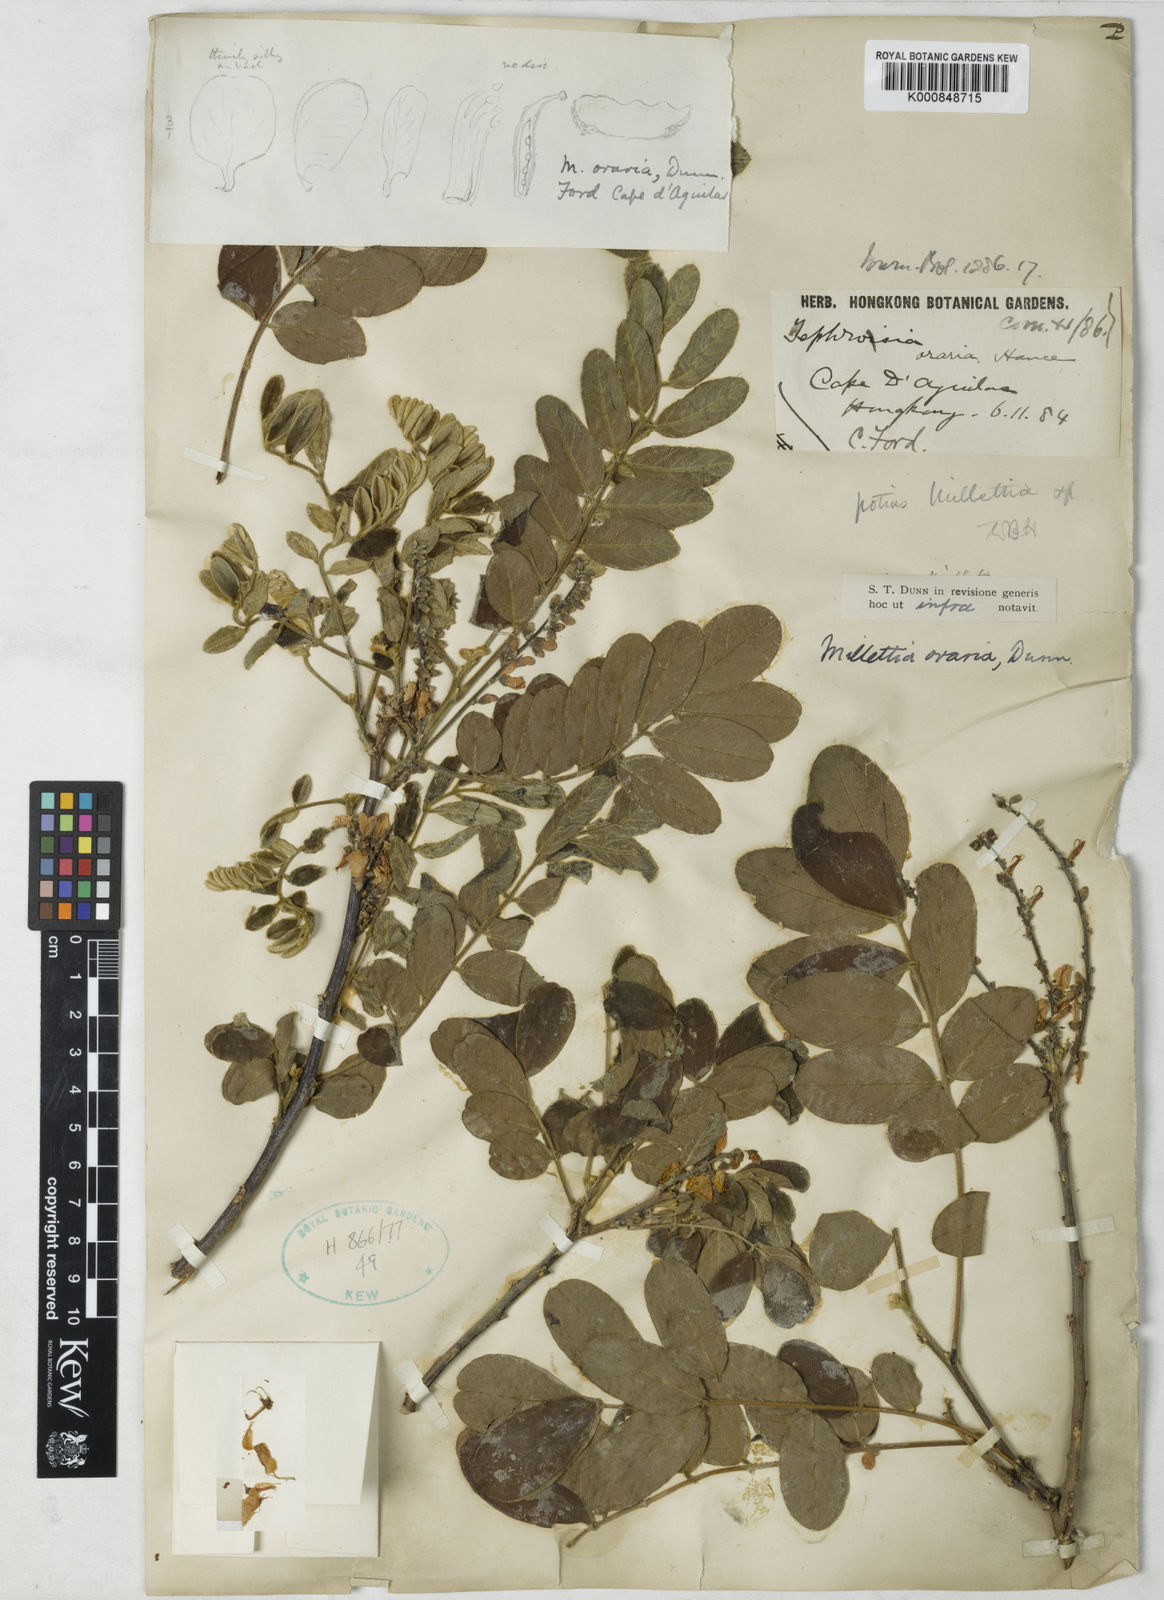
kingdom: Plantae
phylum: Tracheophyta
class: Magnoliopsida
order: Fabales
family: Fabaceae
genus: Millettia
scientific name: Millettia oraria
